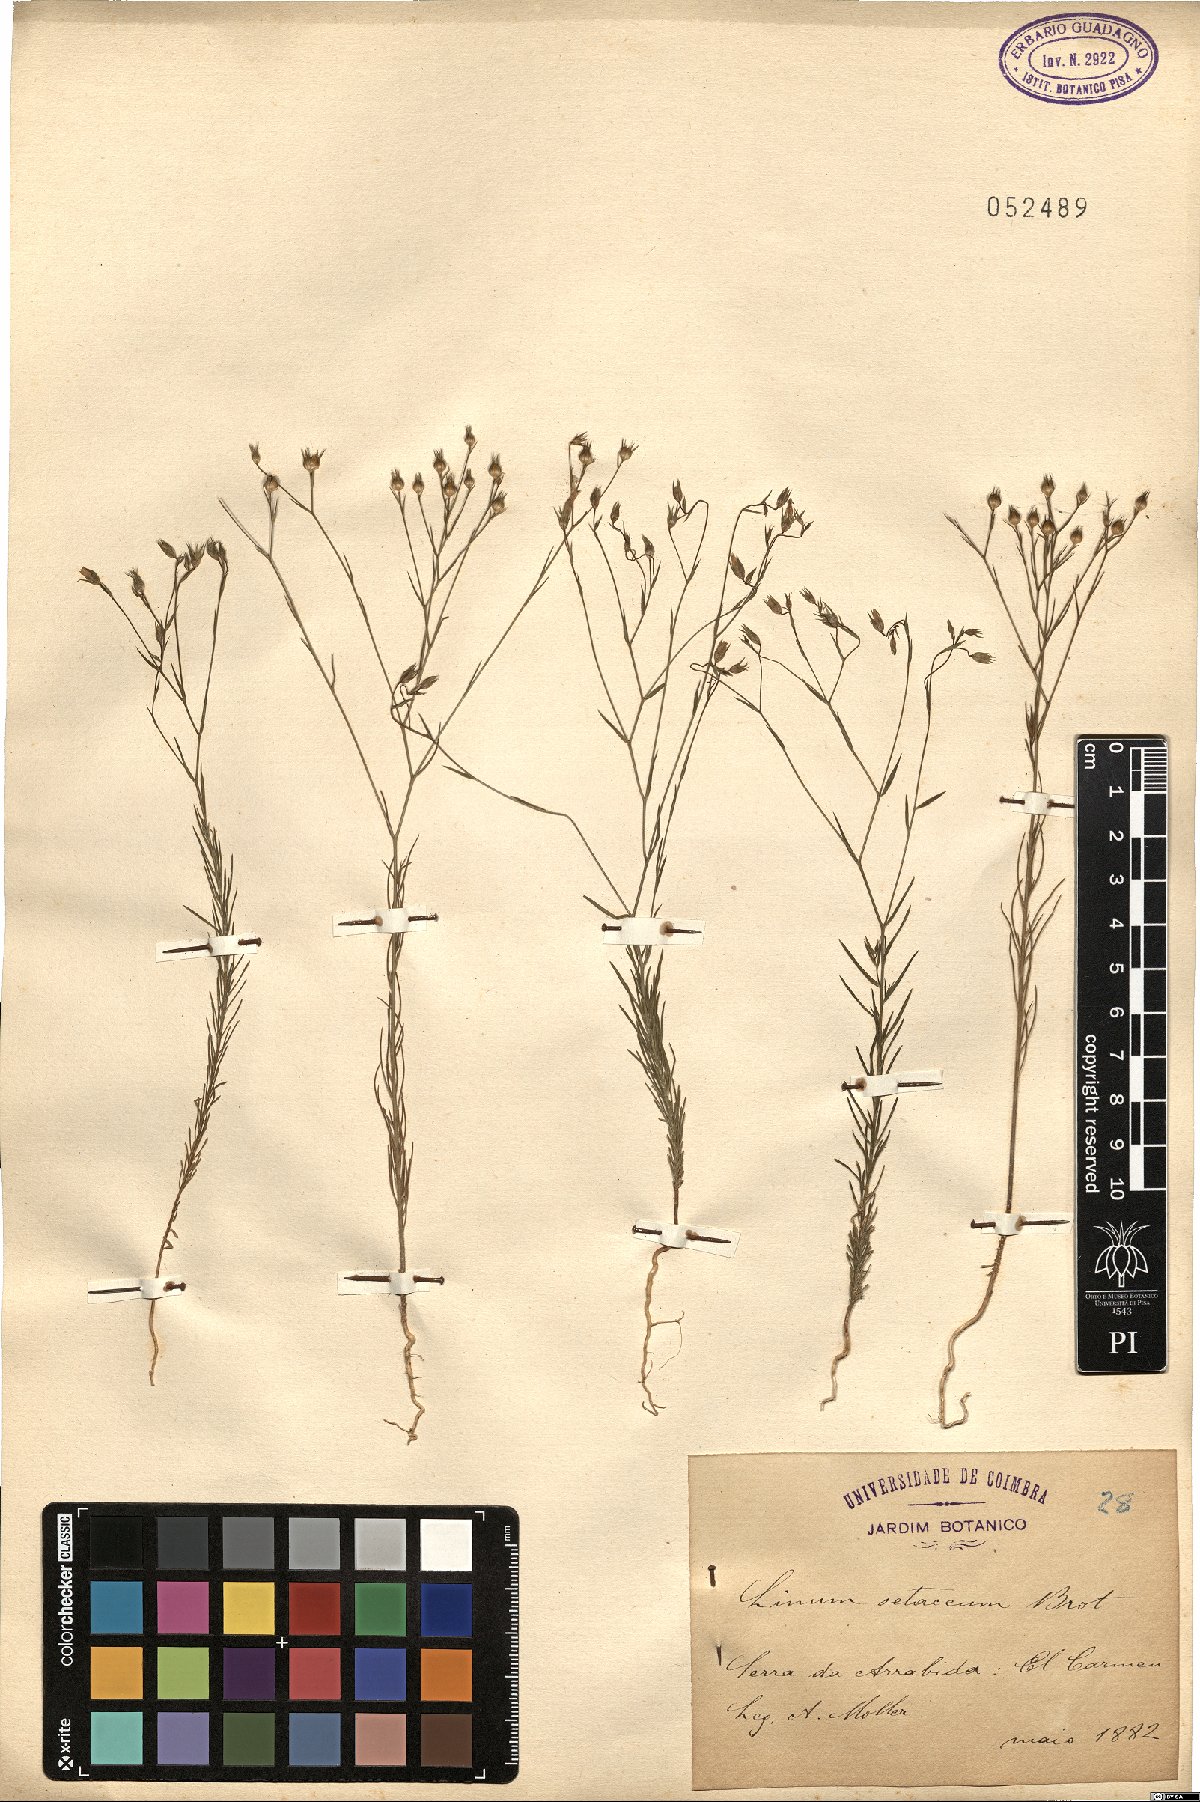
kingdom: Plantae
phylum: Tracheophyta
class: Magnoliopsida
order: Malpighiales
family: Linaceae
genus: Linum
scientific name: Linum setaceum
